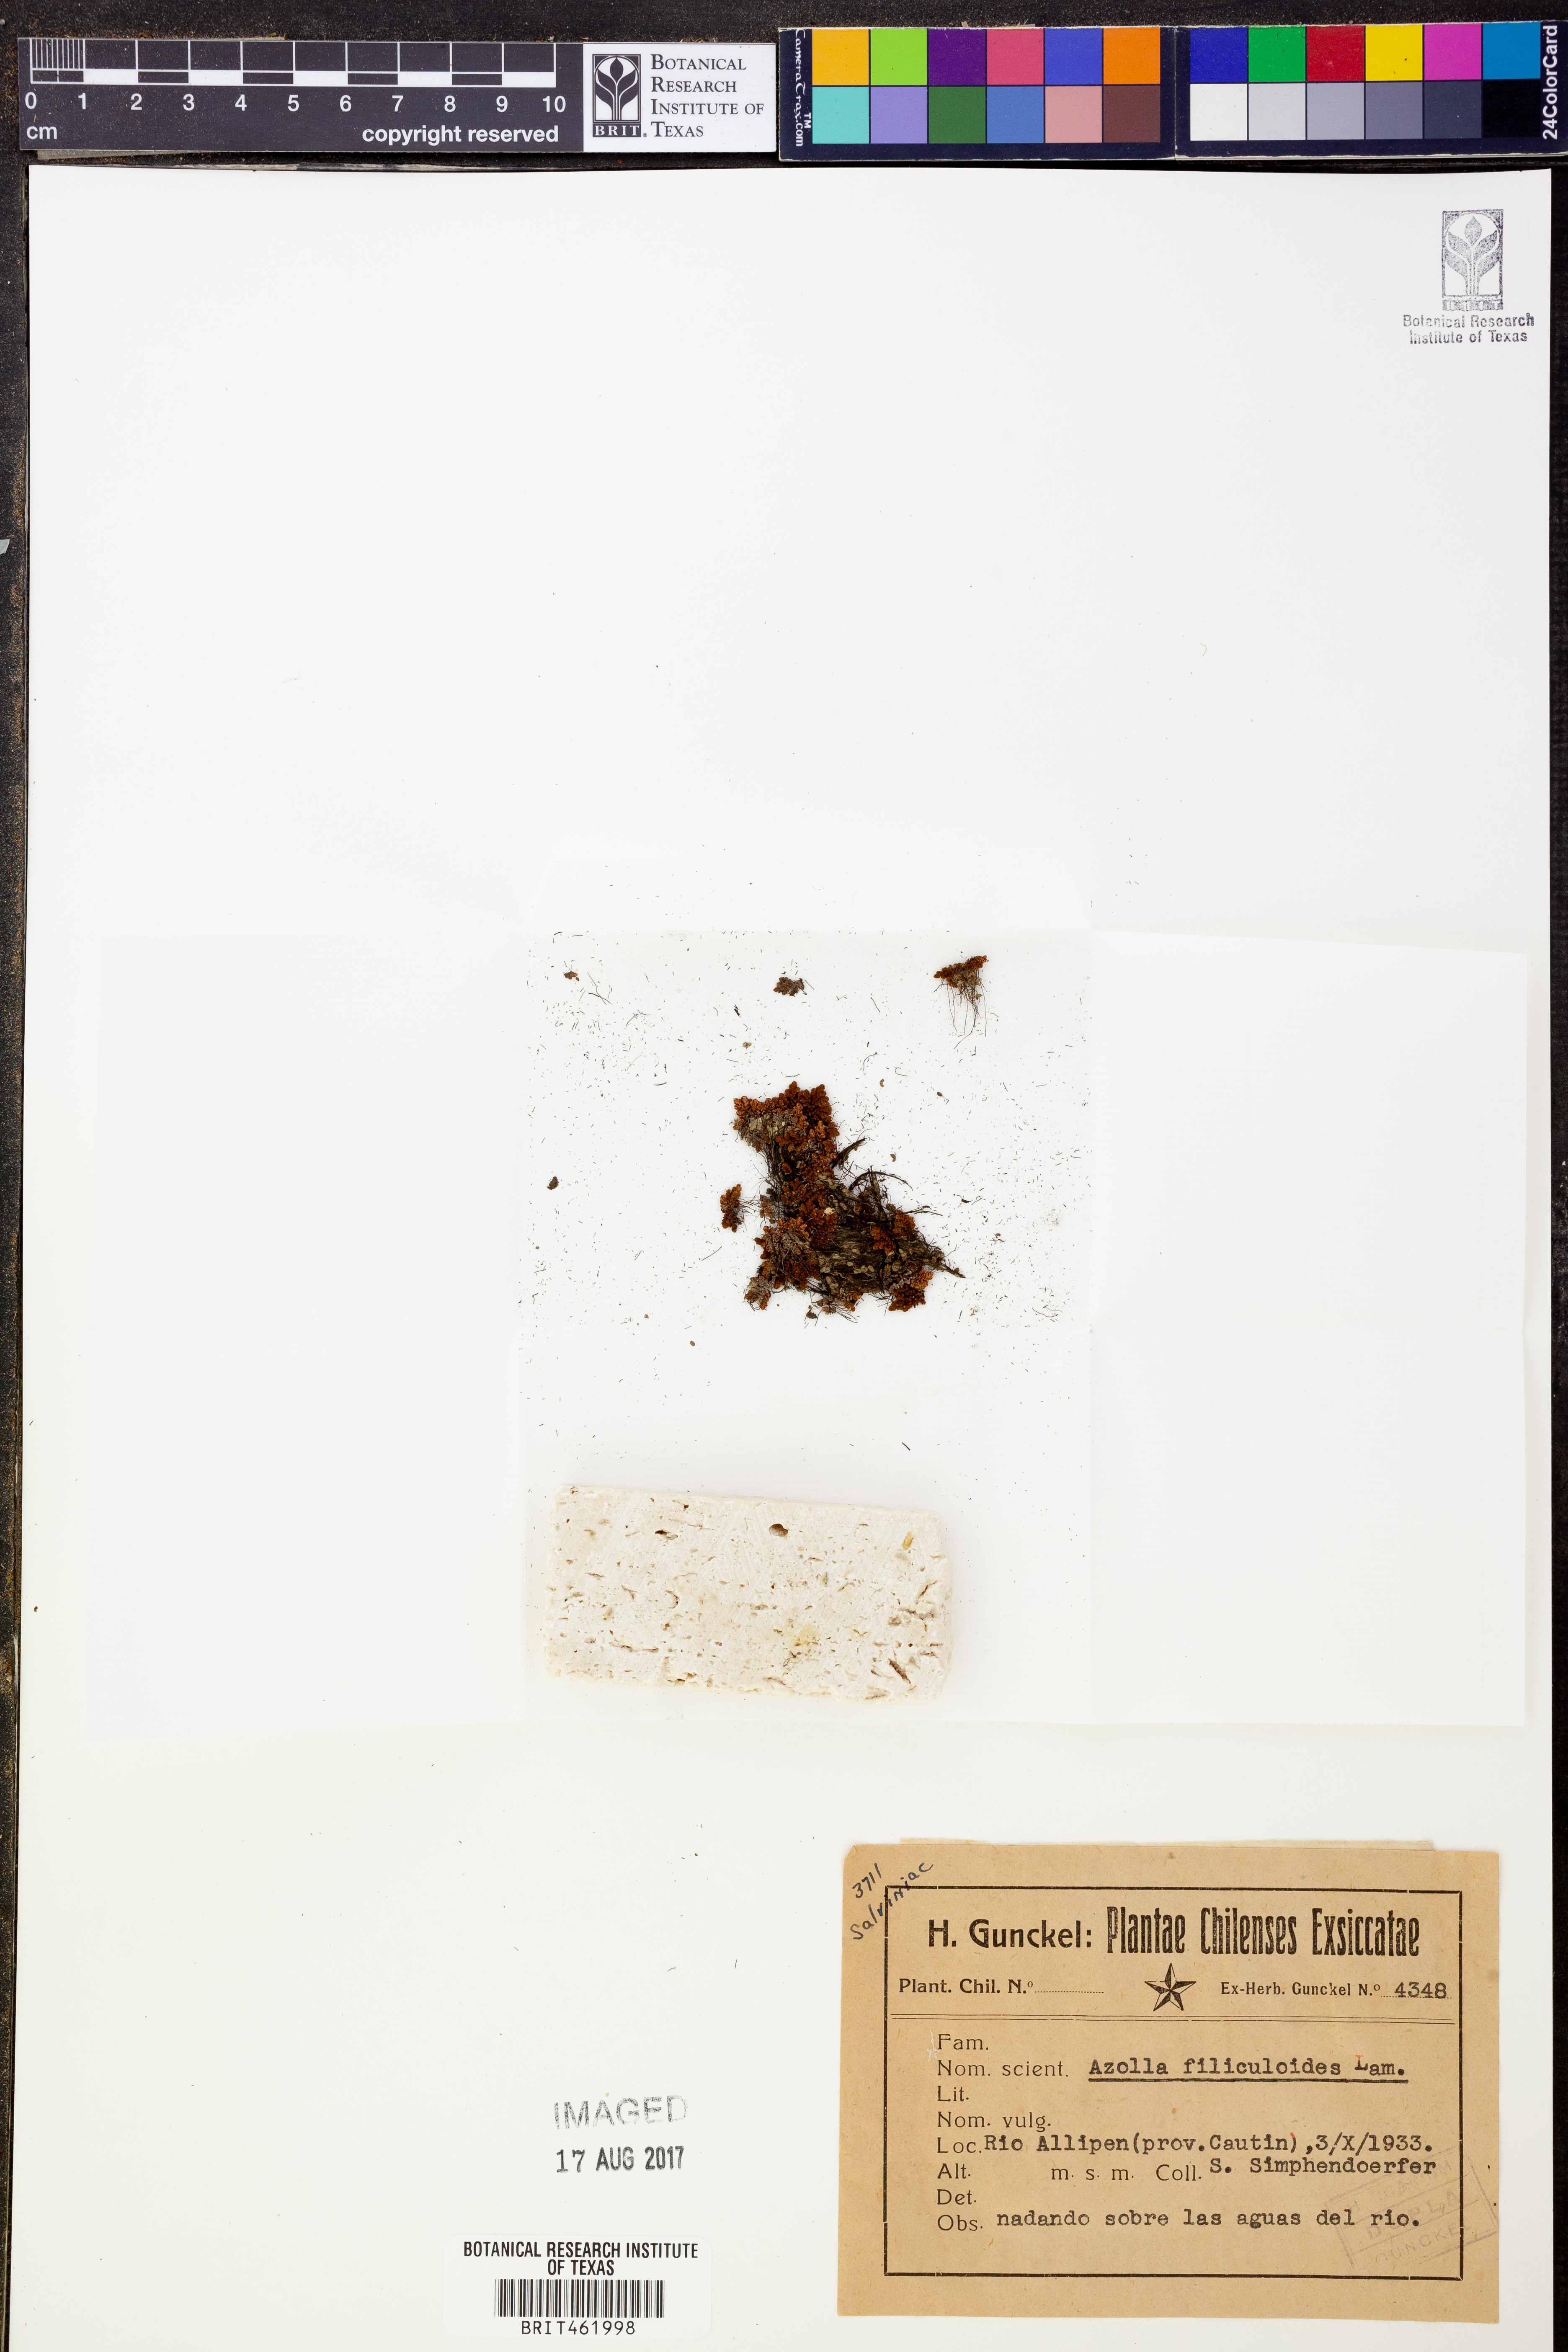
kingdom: Plantae
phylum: Tracheophyta
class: Polypodiopsida
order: Salviniales
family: Salviniaceae
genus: Azolla
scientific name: Azolla filiculoides
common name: Water fern
